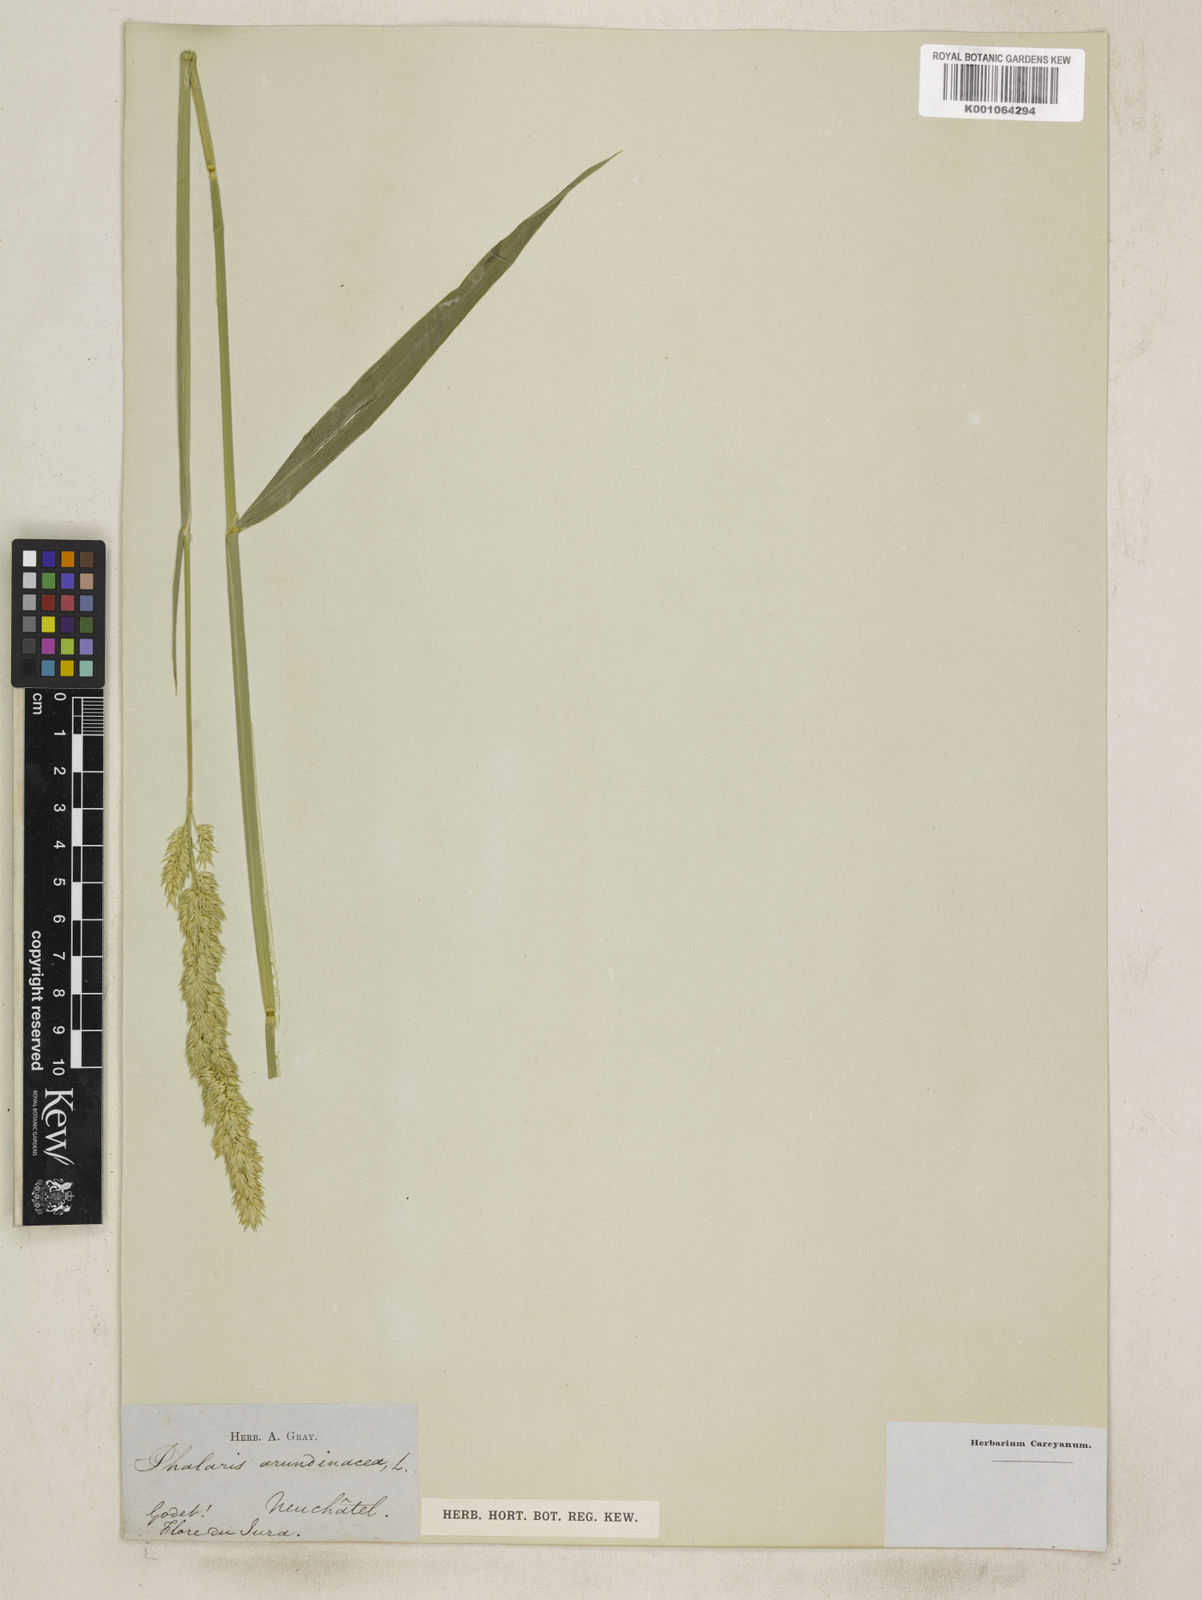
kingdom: Plantae
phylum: Tracheophyta
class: Liliopsida
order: Poales
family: Poaceae
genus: Phalaris
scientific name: Phalaris arundinacea
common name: Reed canary-grass
